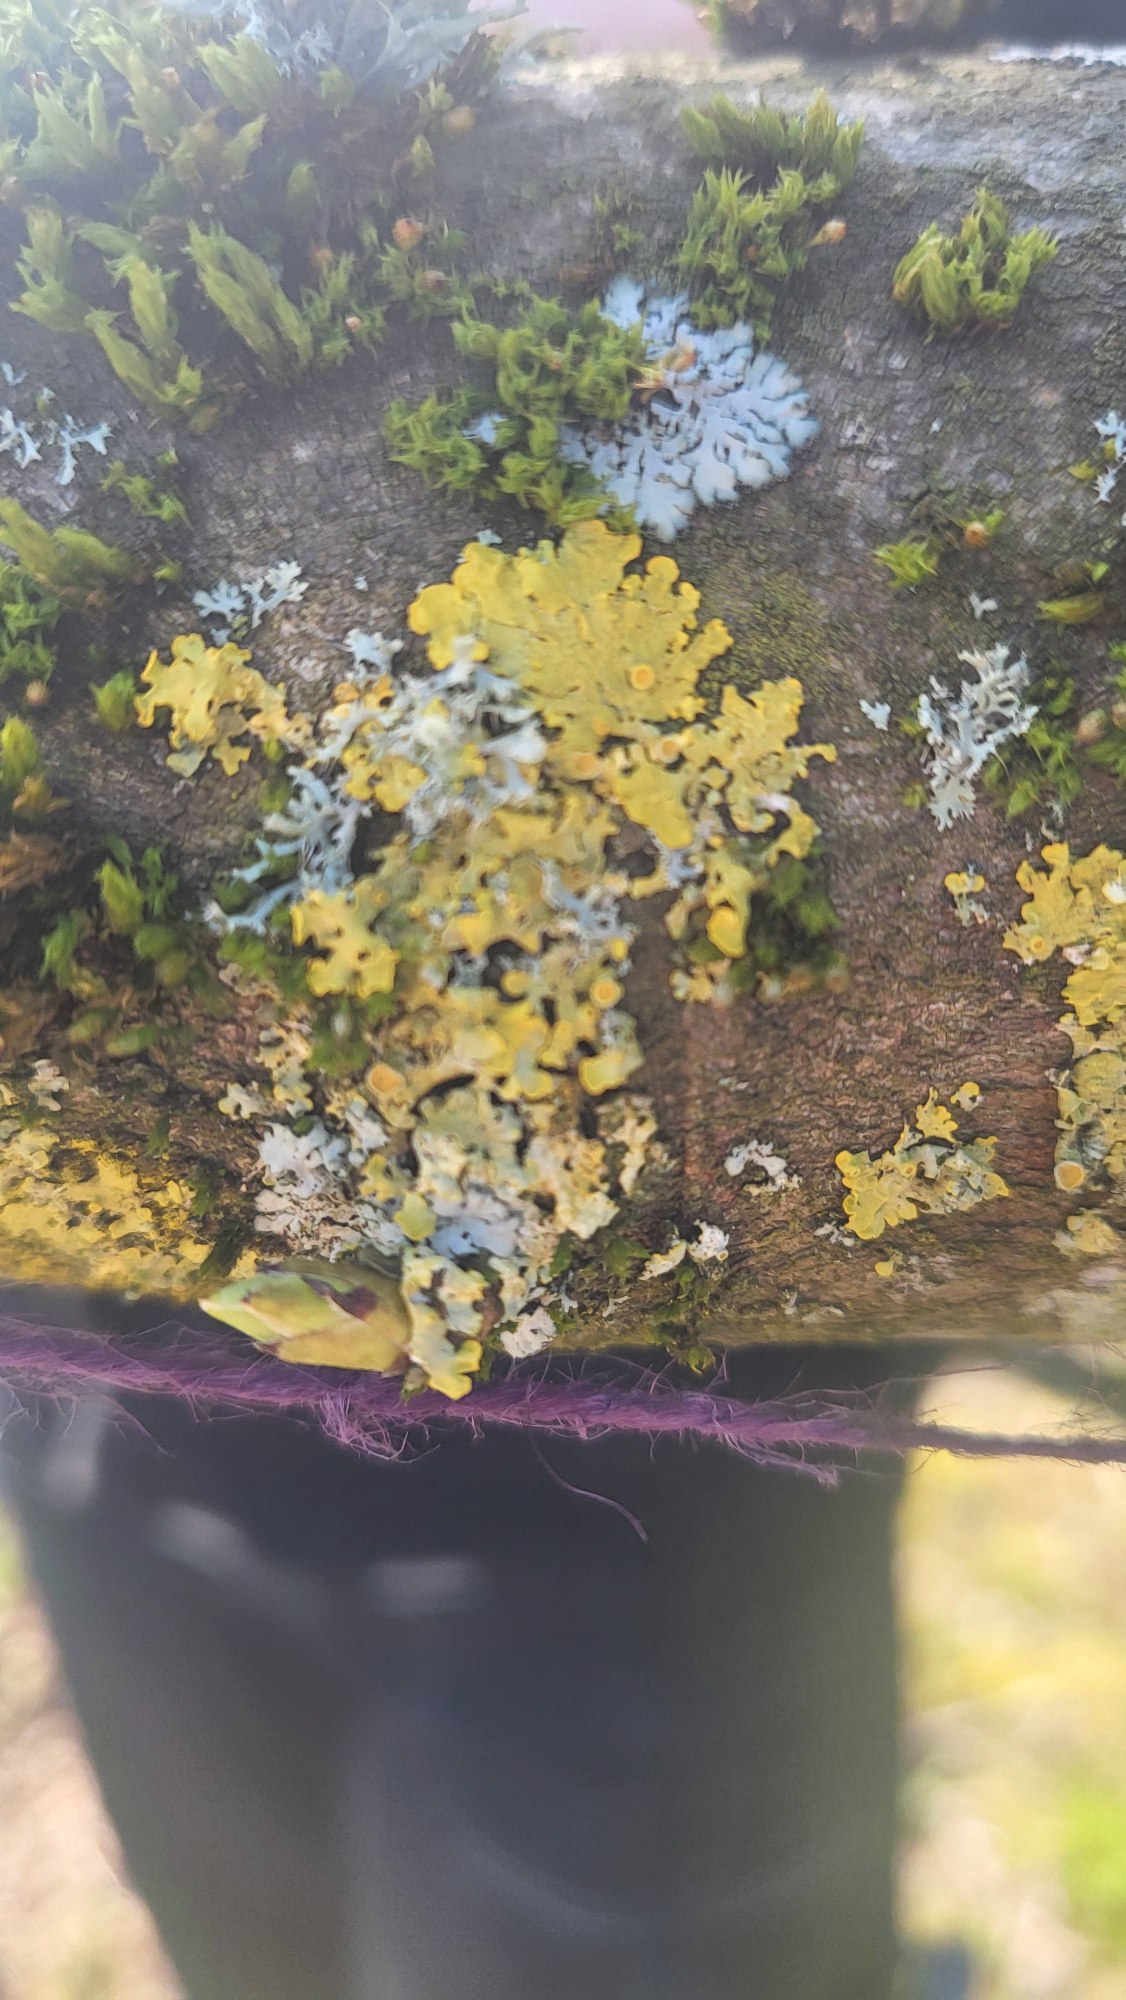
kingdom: Fungi
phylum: Ascomycota
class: Lecanoromycetes
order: Teloschistales
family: Teloschistaceae
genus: Xanthoria
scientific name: Xanthoria parietina
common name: Almindelig væggelav
